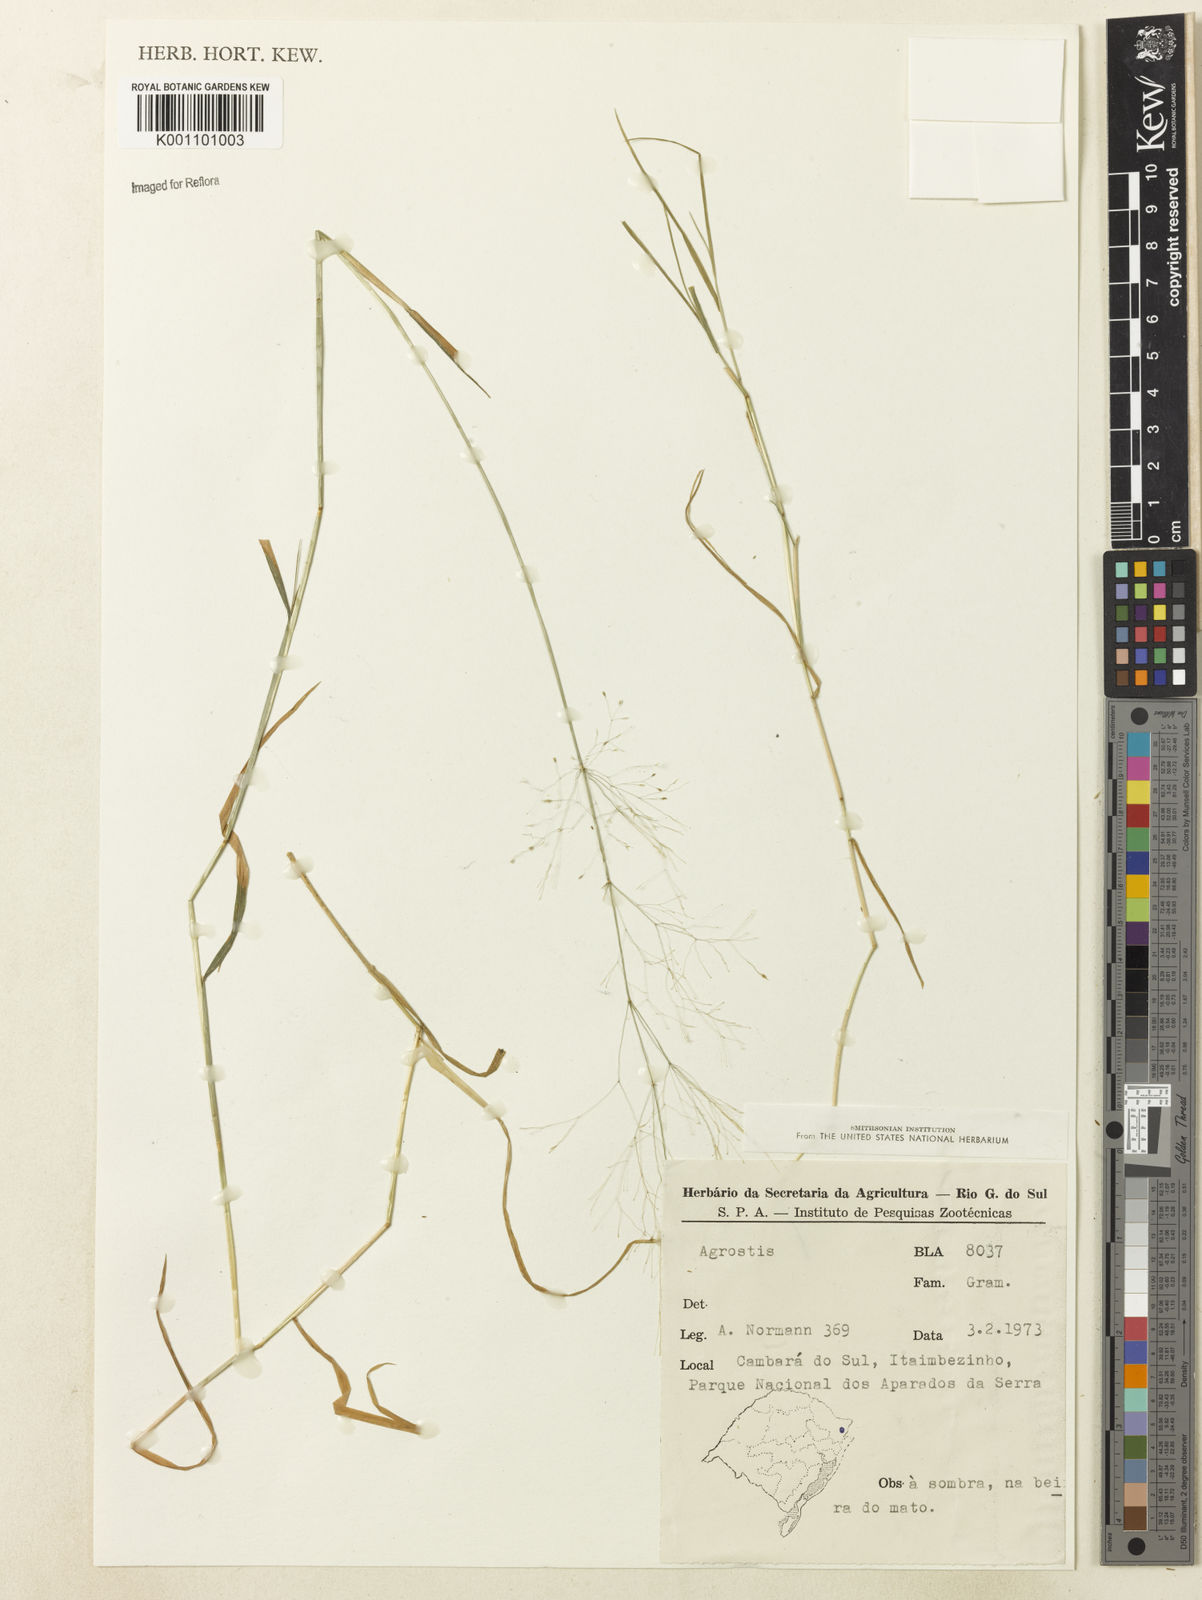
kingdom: Plantae
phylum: Tracheophyta
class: Liliopsida
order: Poales
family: Poaceae
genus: Agrostis
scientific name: Agrostis
